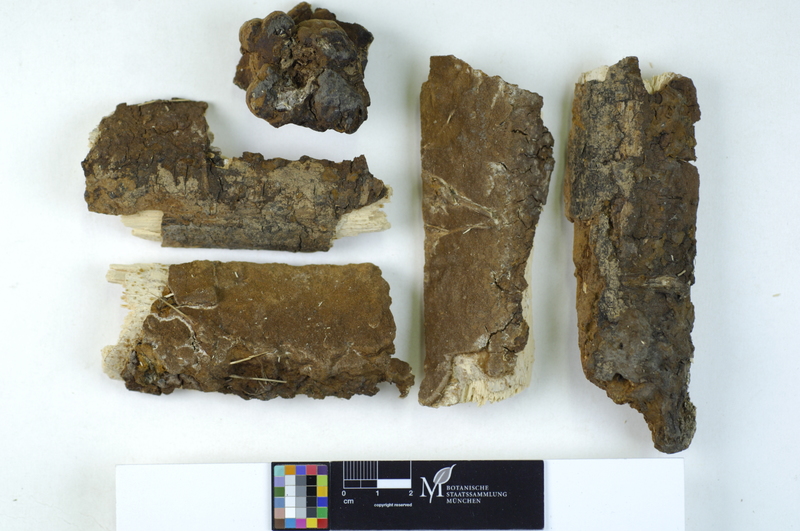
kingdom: Fungi
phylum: Basidiomycota
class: Agaricomycetes
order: Hymenochaetales
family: Hymenochaetaceae
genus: Fuscoporia
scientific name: Fuscoporia ferruginosa
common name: Rusty porecrust
